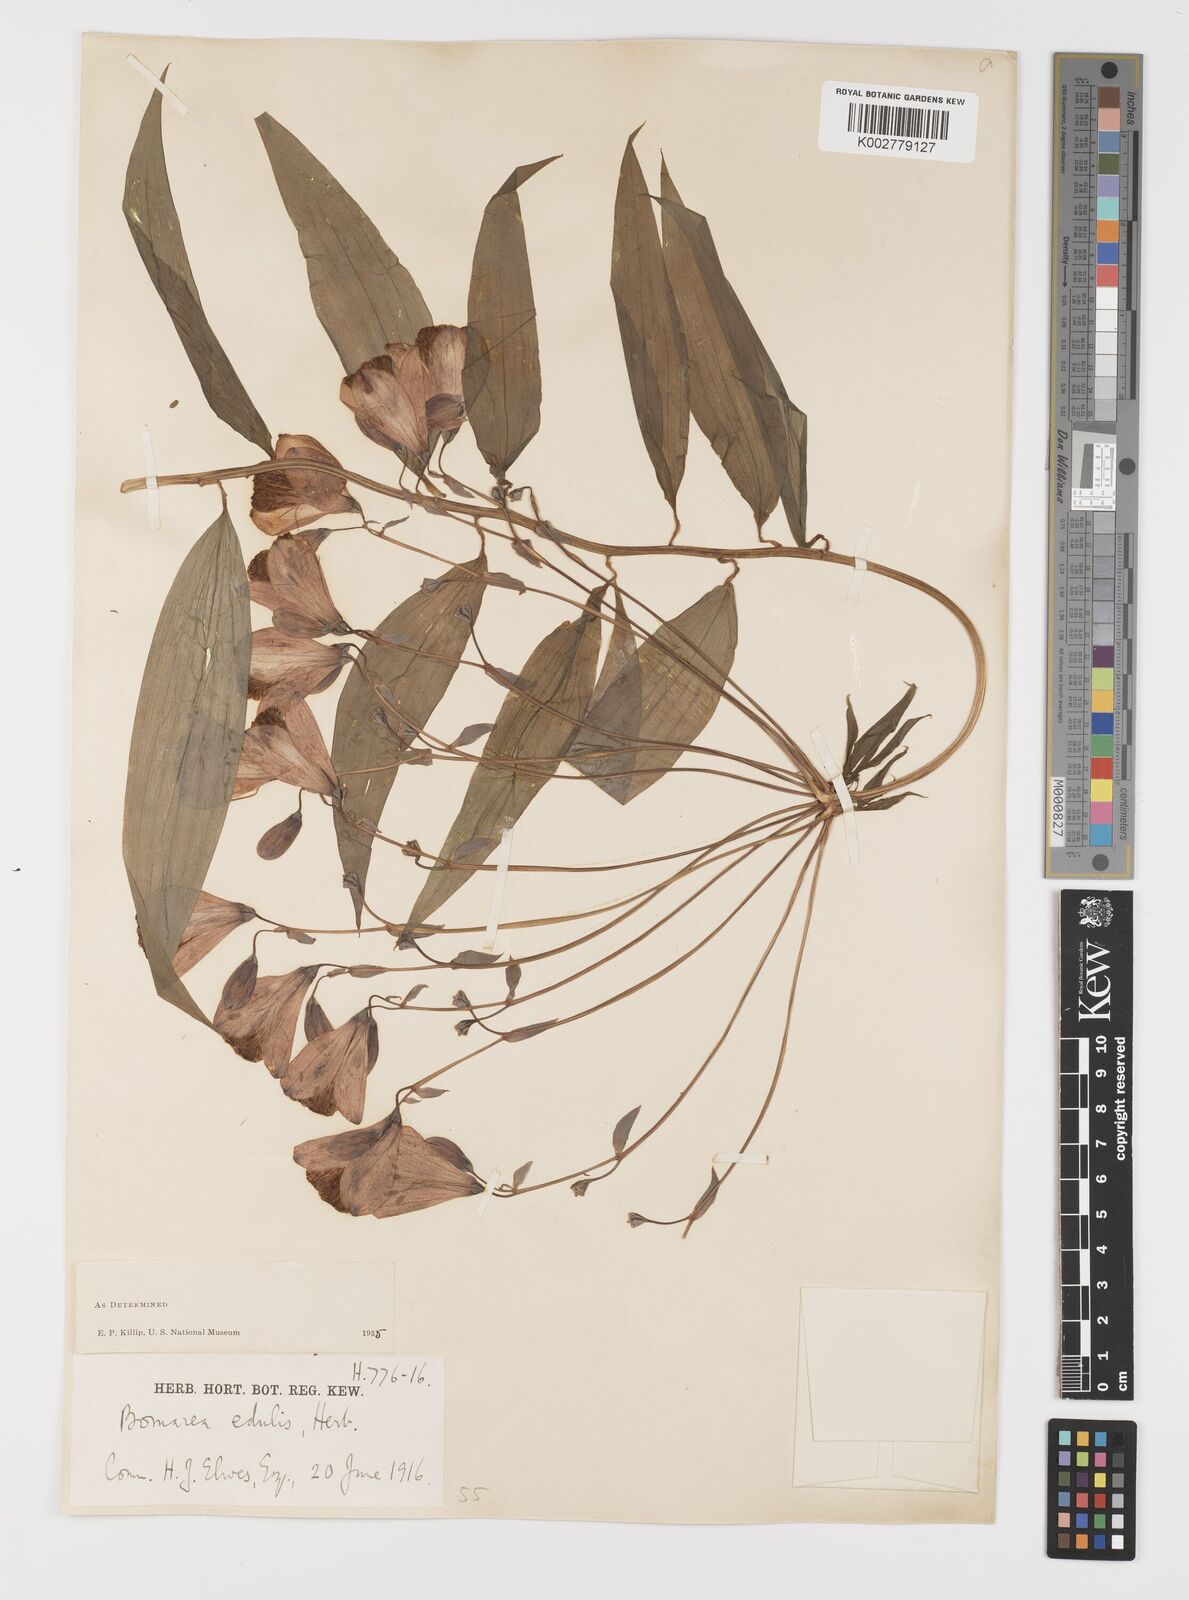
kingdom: Plantae
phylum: Tracheophyta
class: Liliopsida
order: Liliales
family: Alstroemeriaceae
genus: Bomarea
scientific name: Bomarea edulis
